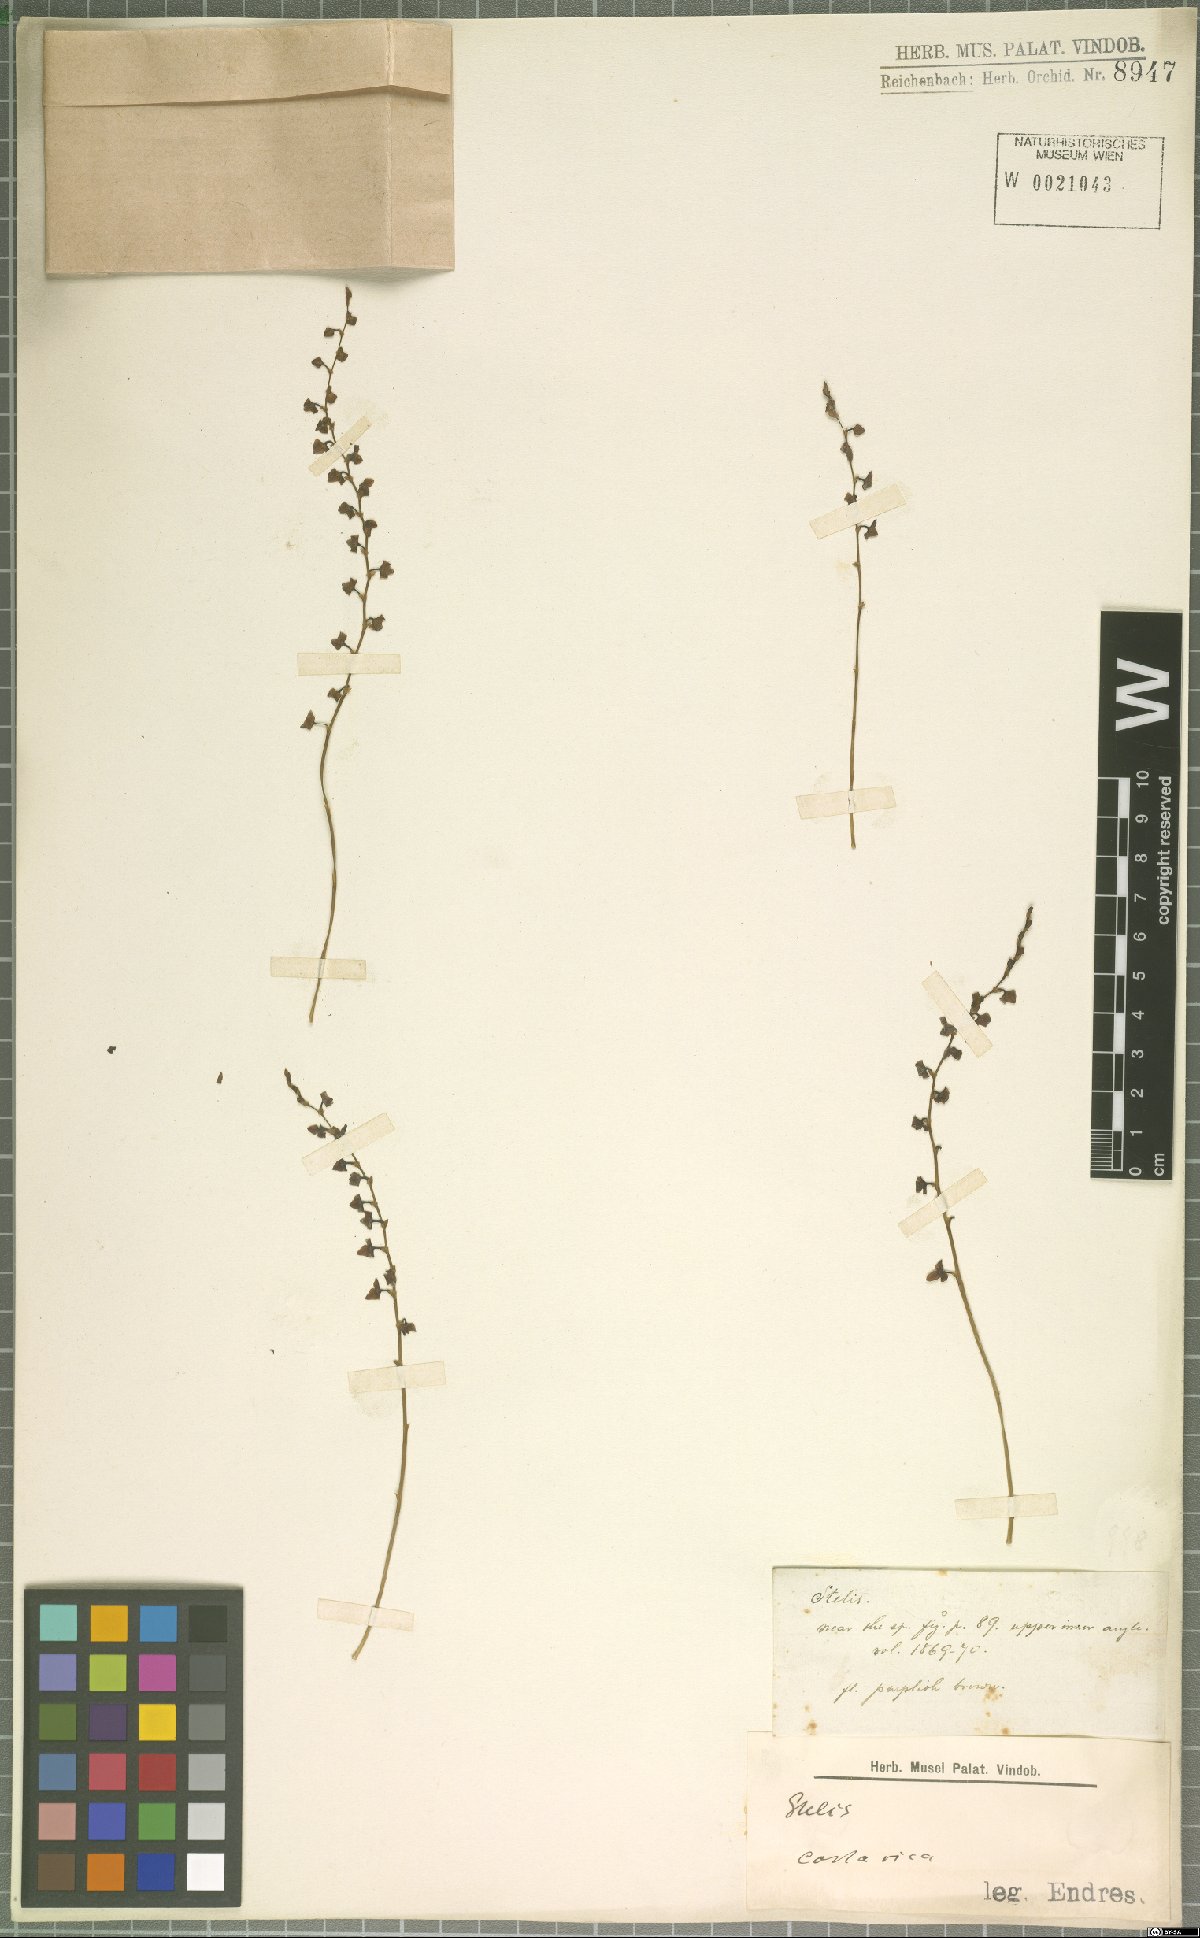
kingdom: Plantae
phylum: Tracheophyta
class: Liliopsida
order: Asparagales
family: Orchidaceae
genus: Stelis
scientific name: Stelis
